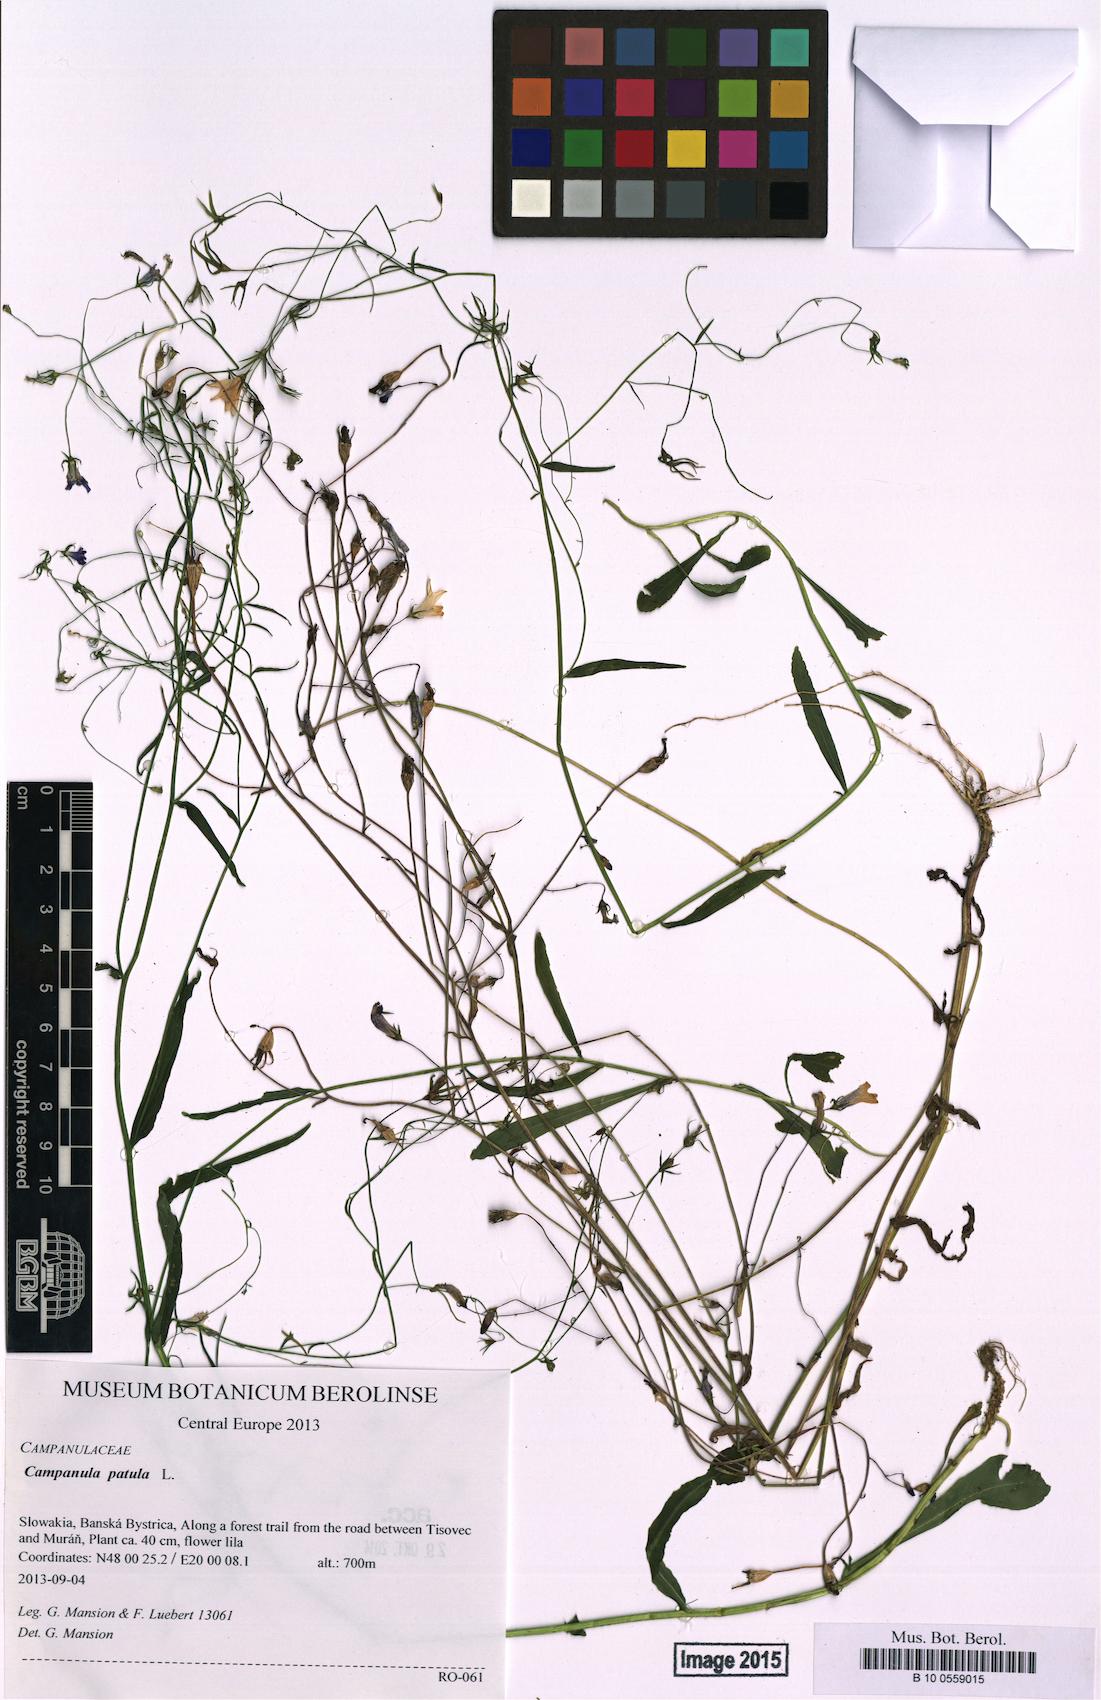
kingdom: Plantae
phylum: Tracheophyta
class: Magnoliopsida
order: Asterales
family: Campanulaceae
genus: Campanula
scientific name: Campanula patula
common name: Spreading bellflower
